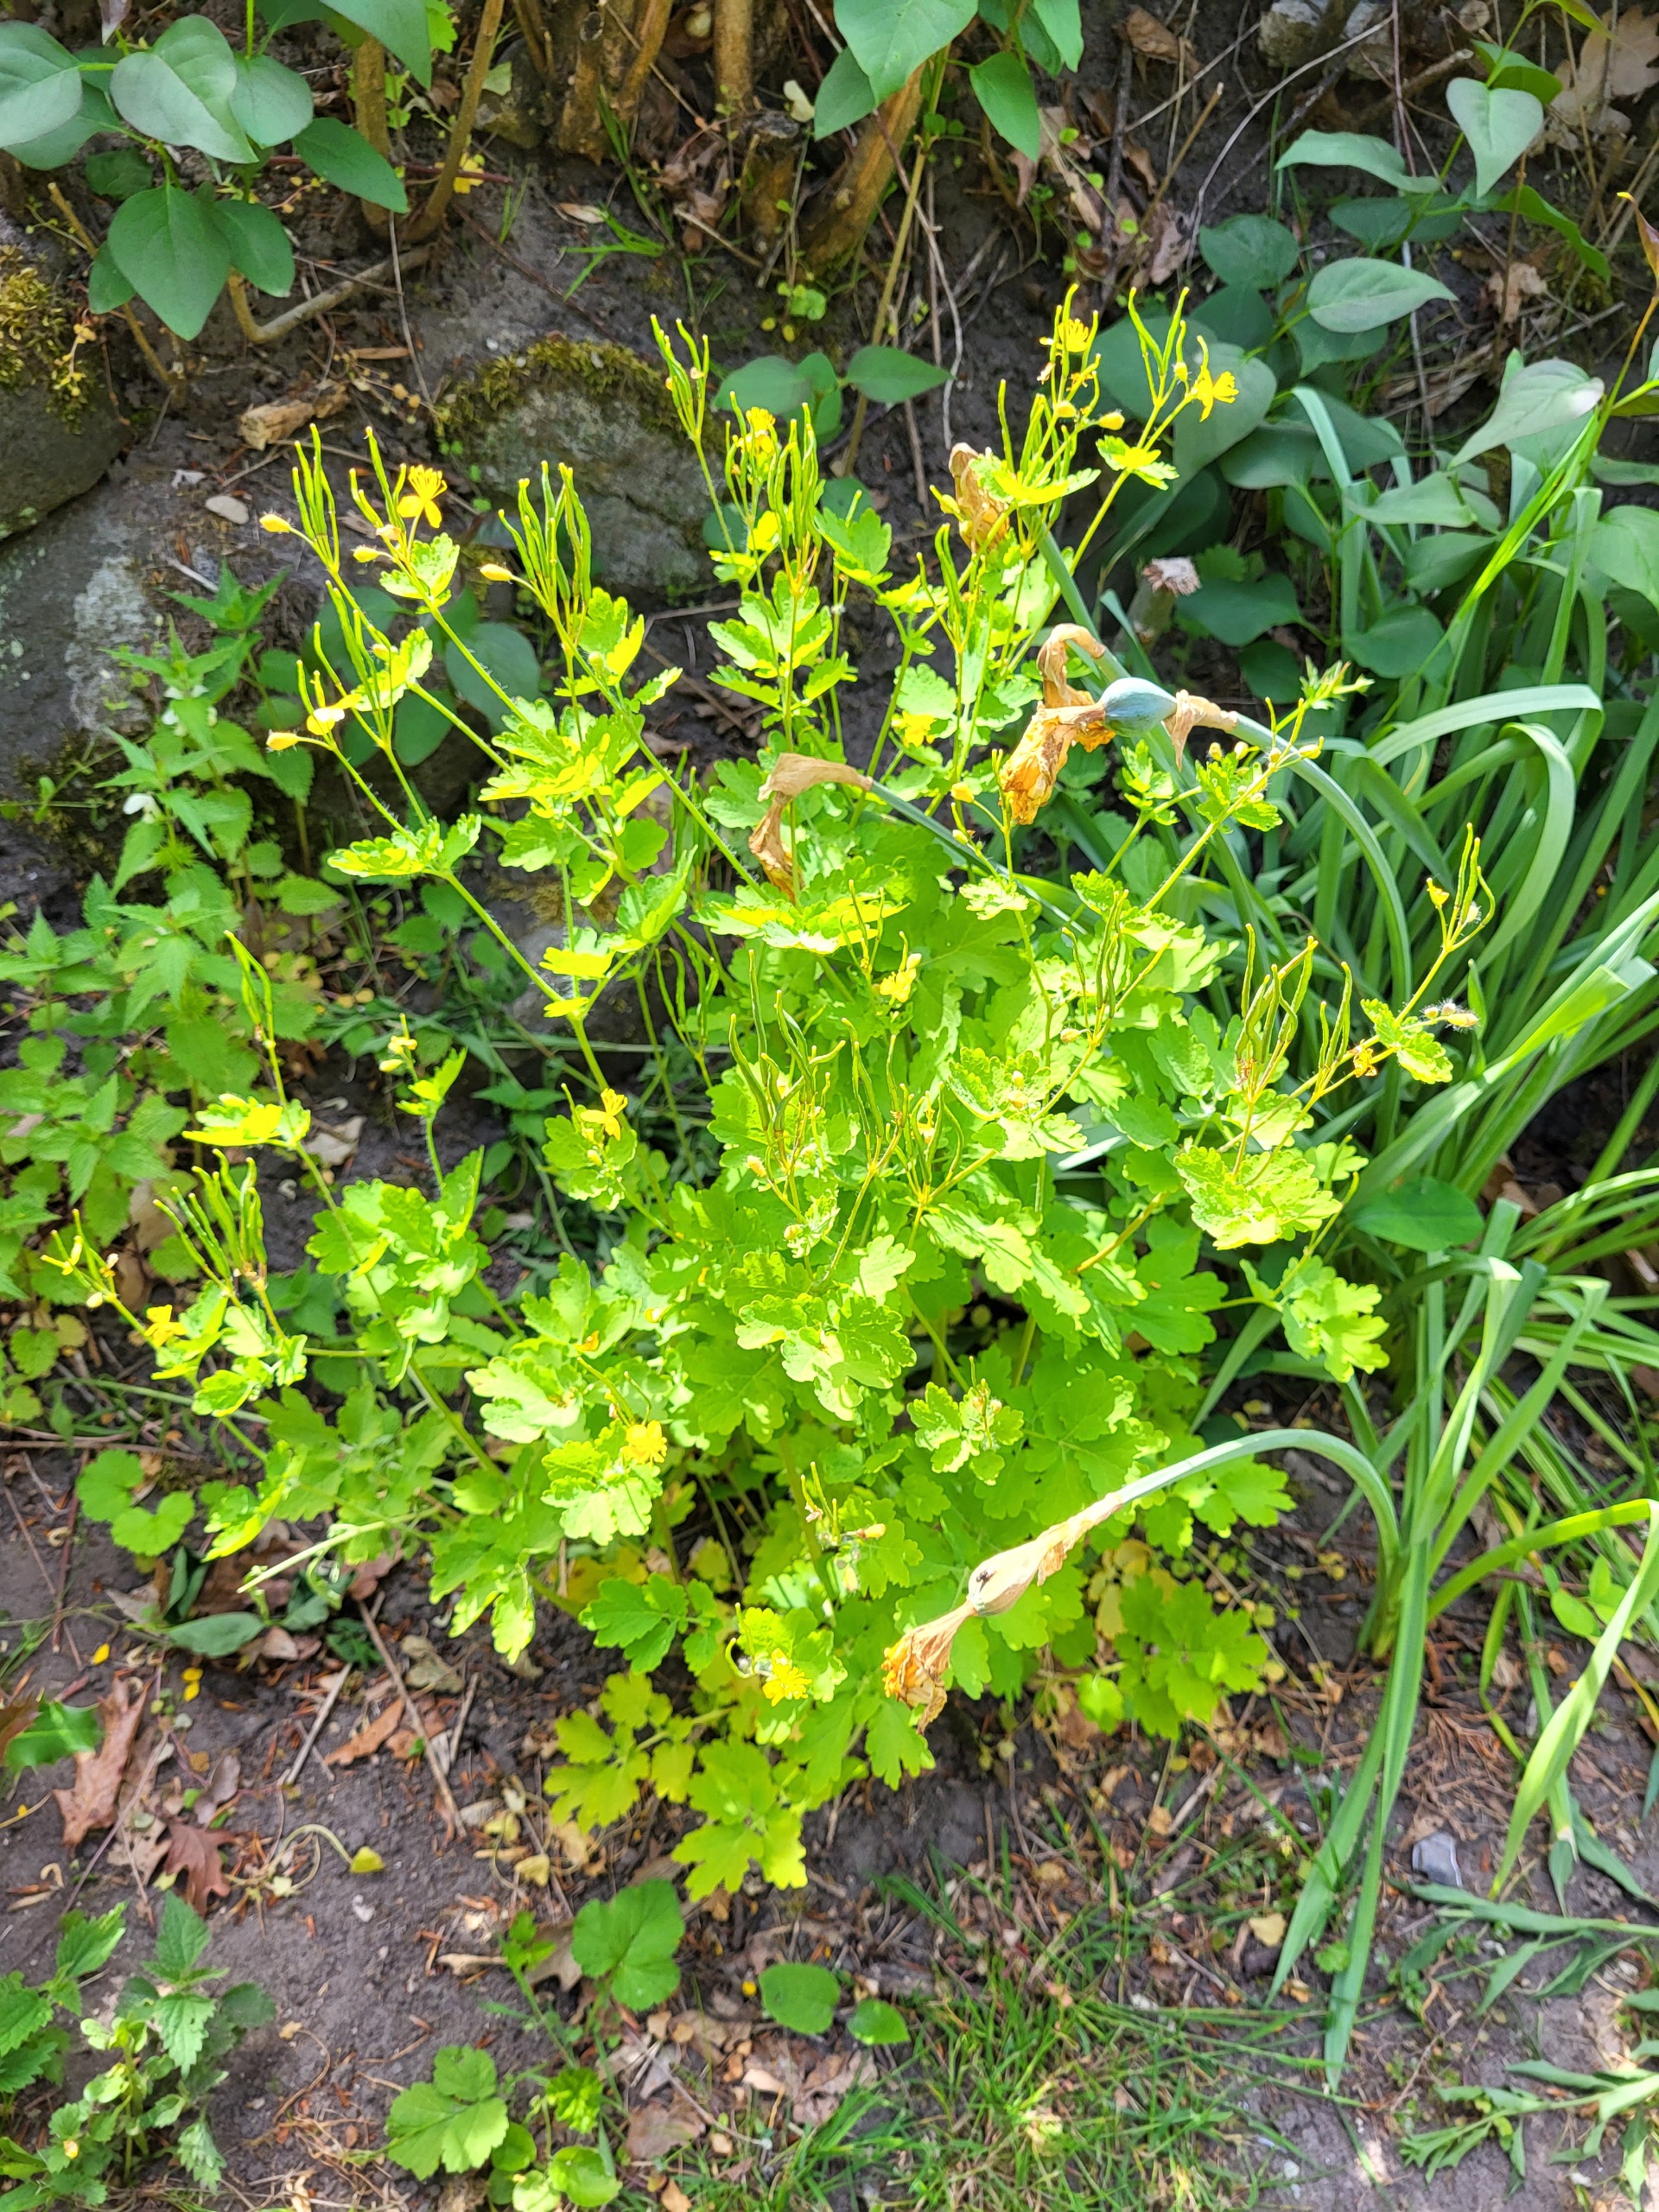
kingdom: Plantae
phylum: Tracheophyta
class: Magnoliopsida
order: Ranunculales
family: Papaveraceae
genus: Chelidonium
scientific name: Chelidonium majus
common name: Svaleurt
